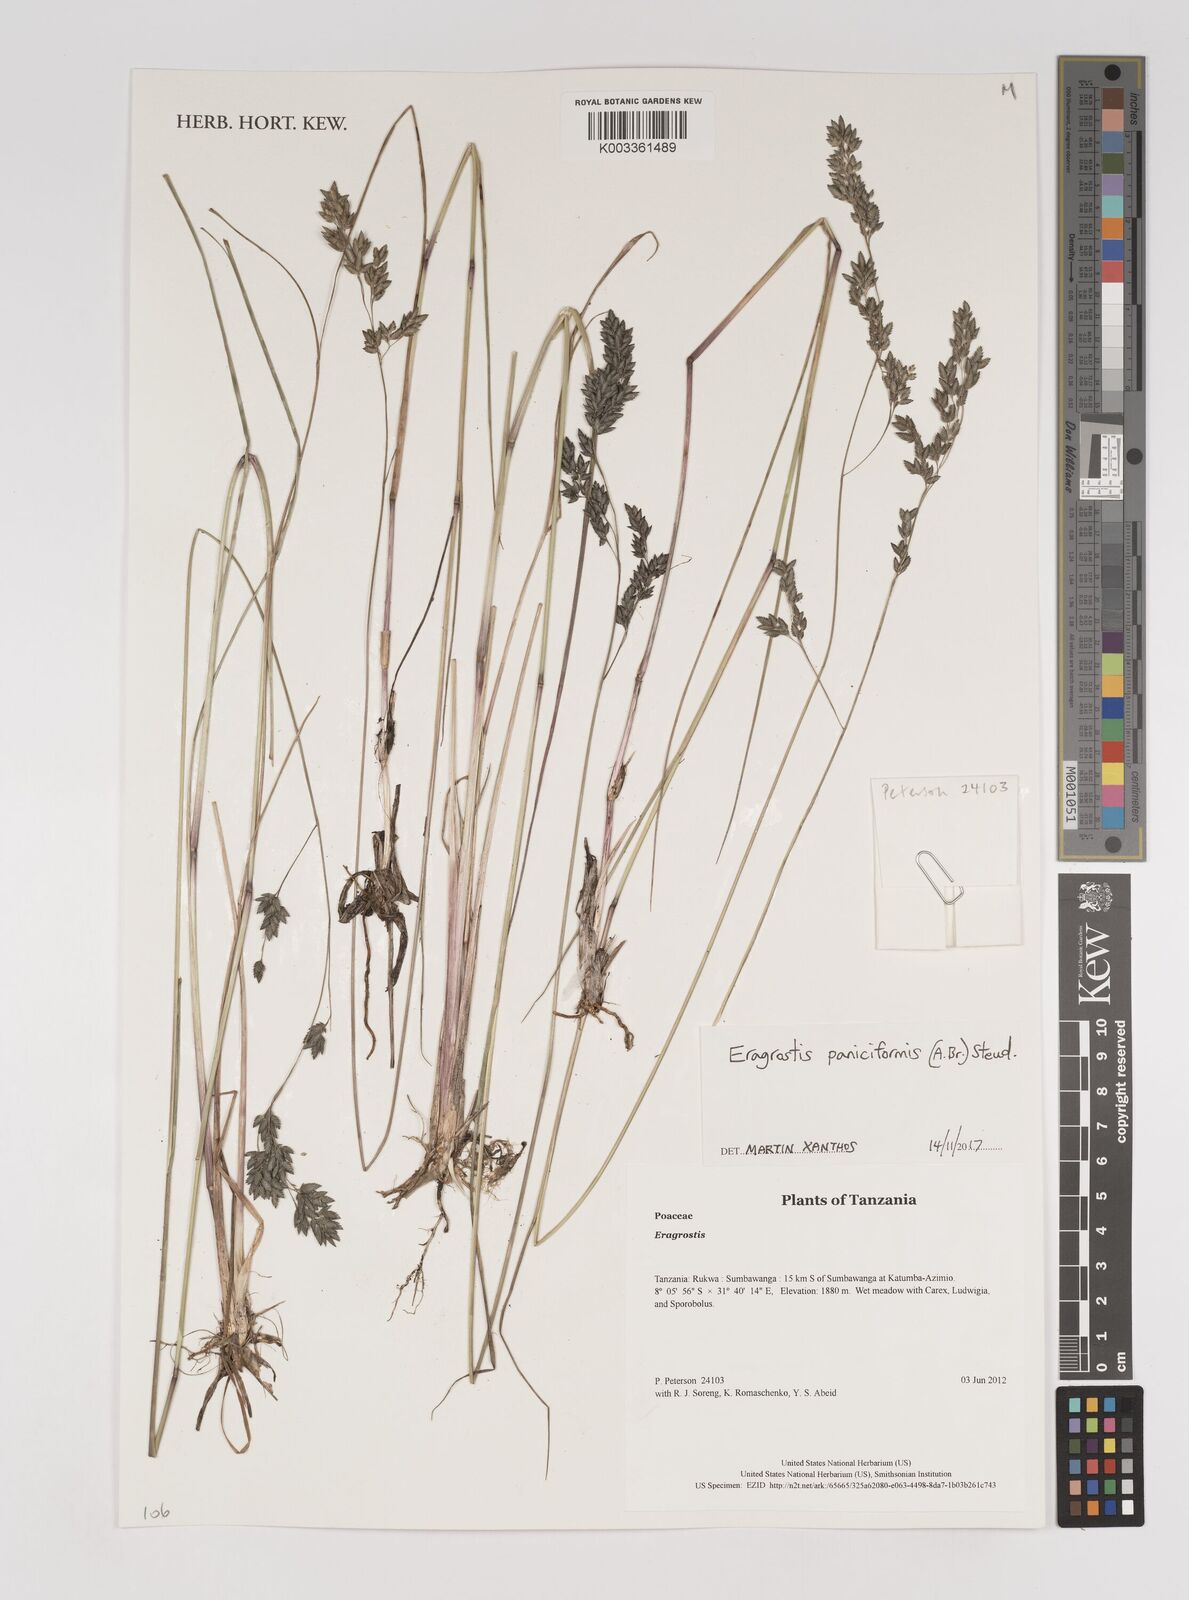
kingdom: Plantae
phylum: Tracheophyta
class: Liliopsida
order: Poales
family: Poaceae
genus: Eragrostis
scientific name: Eragrostis paniciformis
